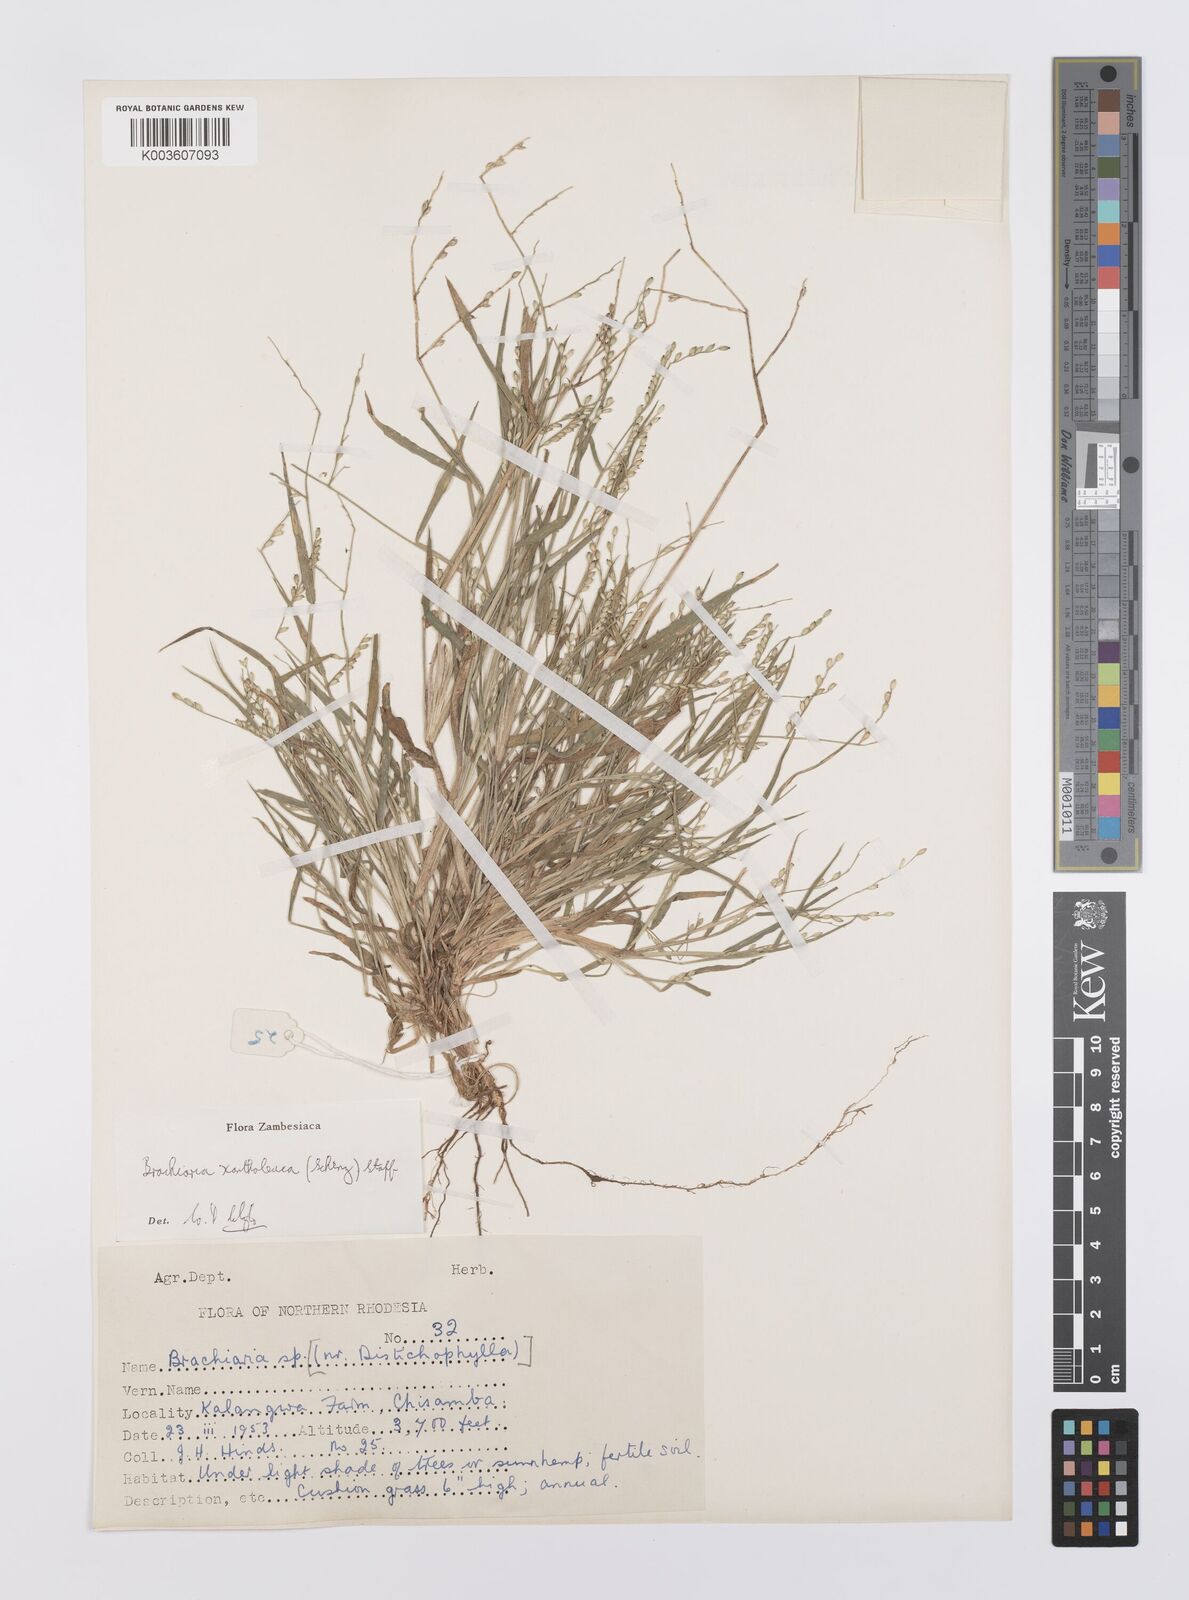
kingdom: Plantae
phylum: Tracheophyta
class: Liliopsida
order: Poales
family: Poaceae
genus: Urochloa
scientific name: Urochloa xantholeuca
